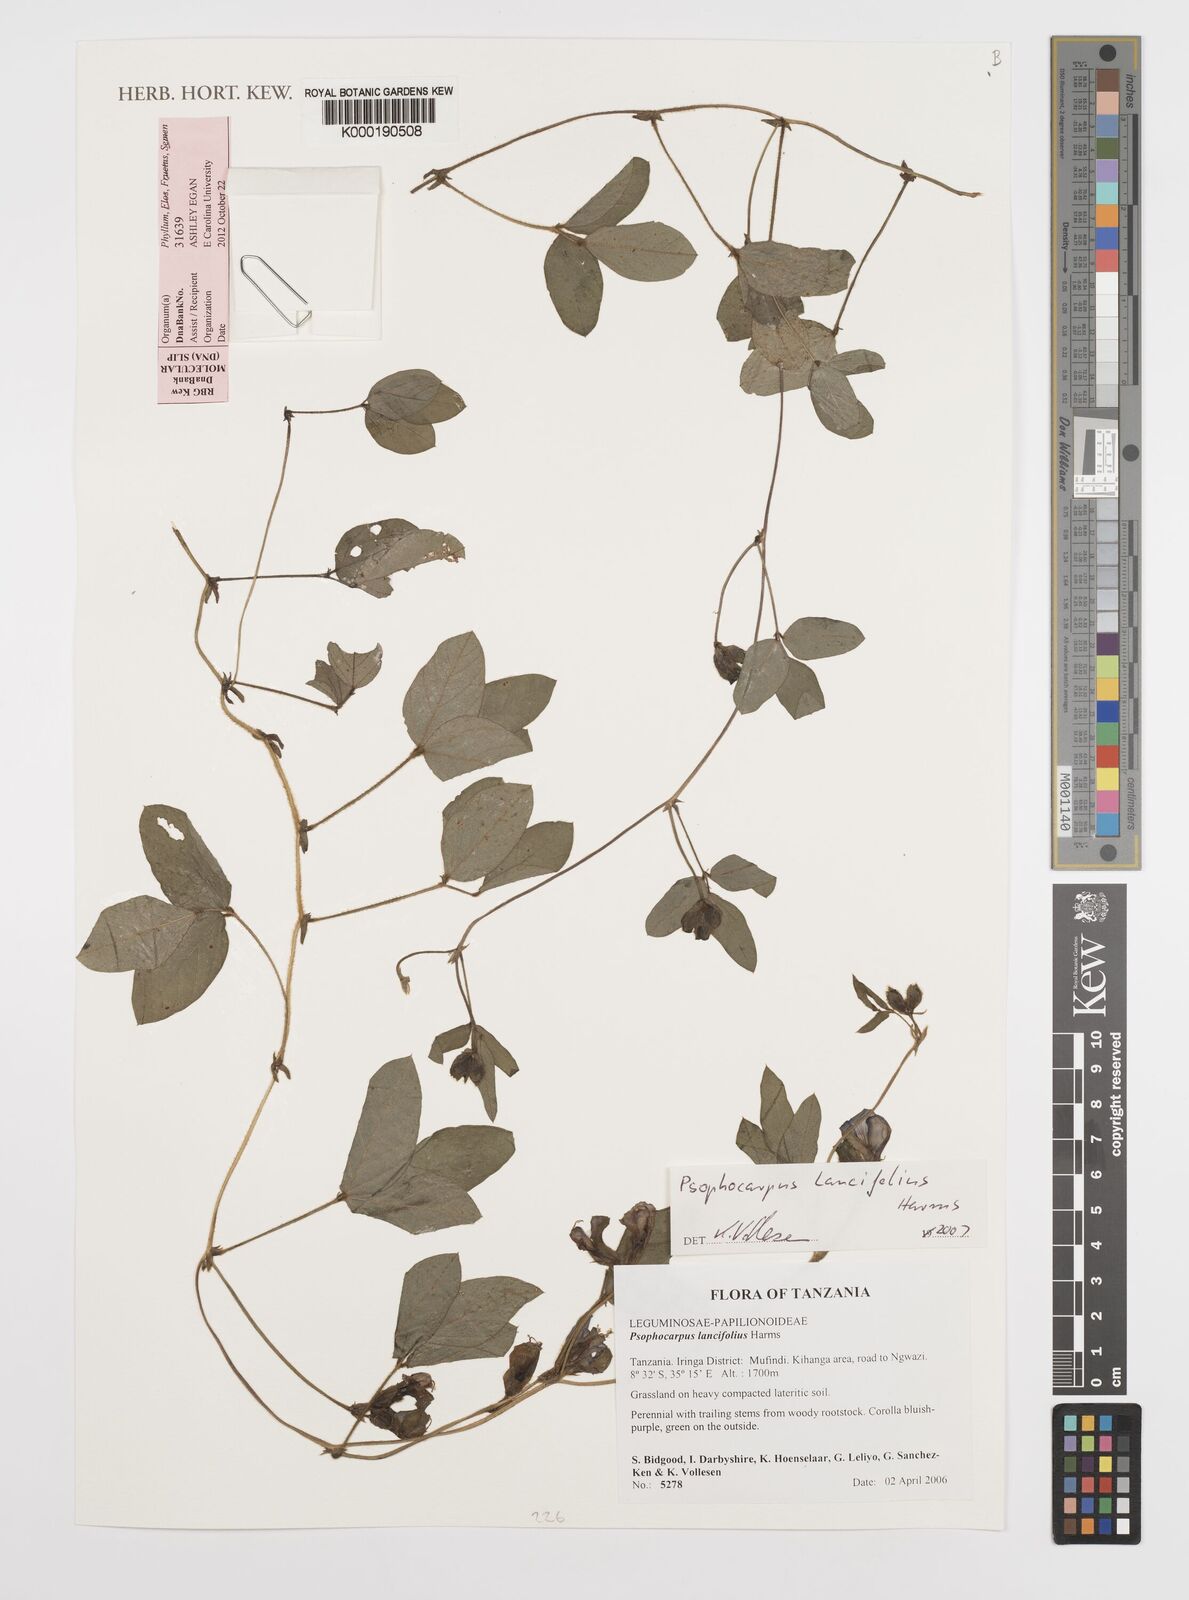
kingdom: Plantae
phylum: Tracheophyta
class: Magnoliopsida
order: Fabales
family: Fabaceae
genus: Psophocarpus
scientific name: Psophocarpus lancifolius
